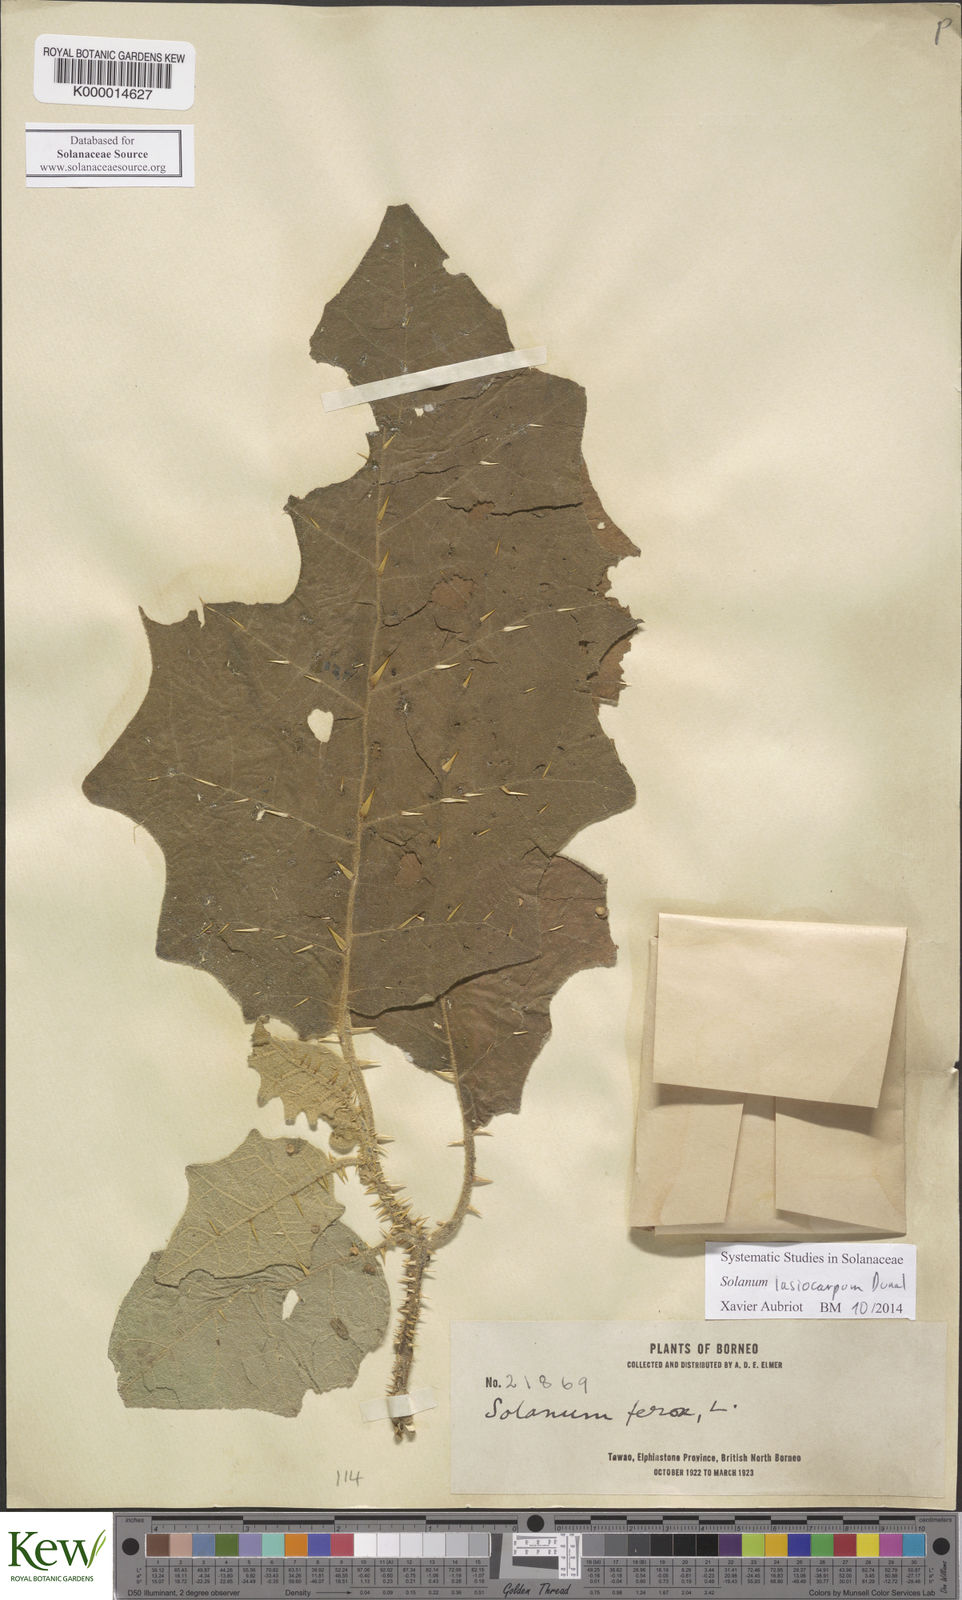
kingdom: Plantae
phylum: Tracheophyta
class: Magnoliopsida
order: Solanales
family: Solanaceae
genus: Solanum
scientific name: Solanum lasiocarpum
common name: Indian nightshade
